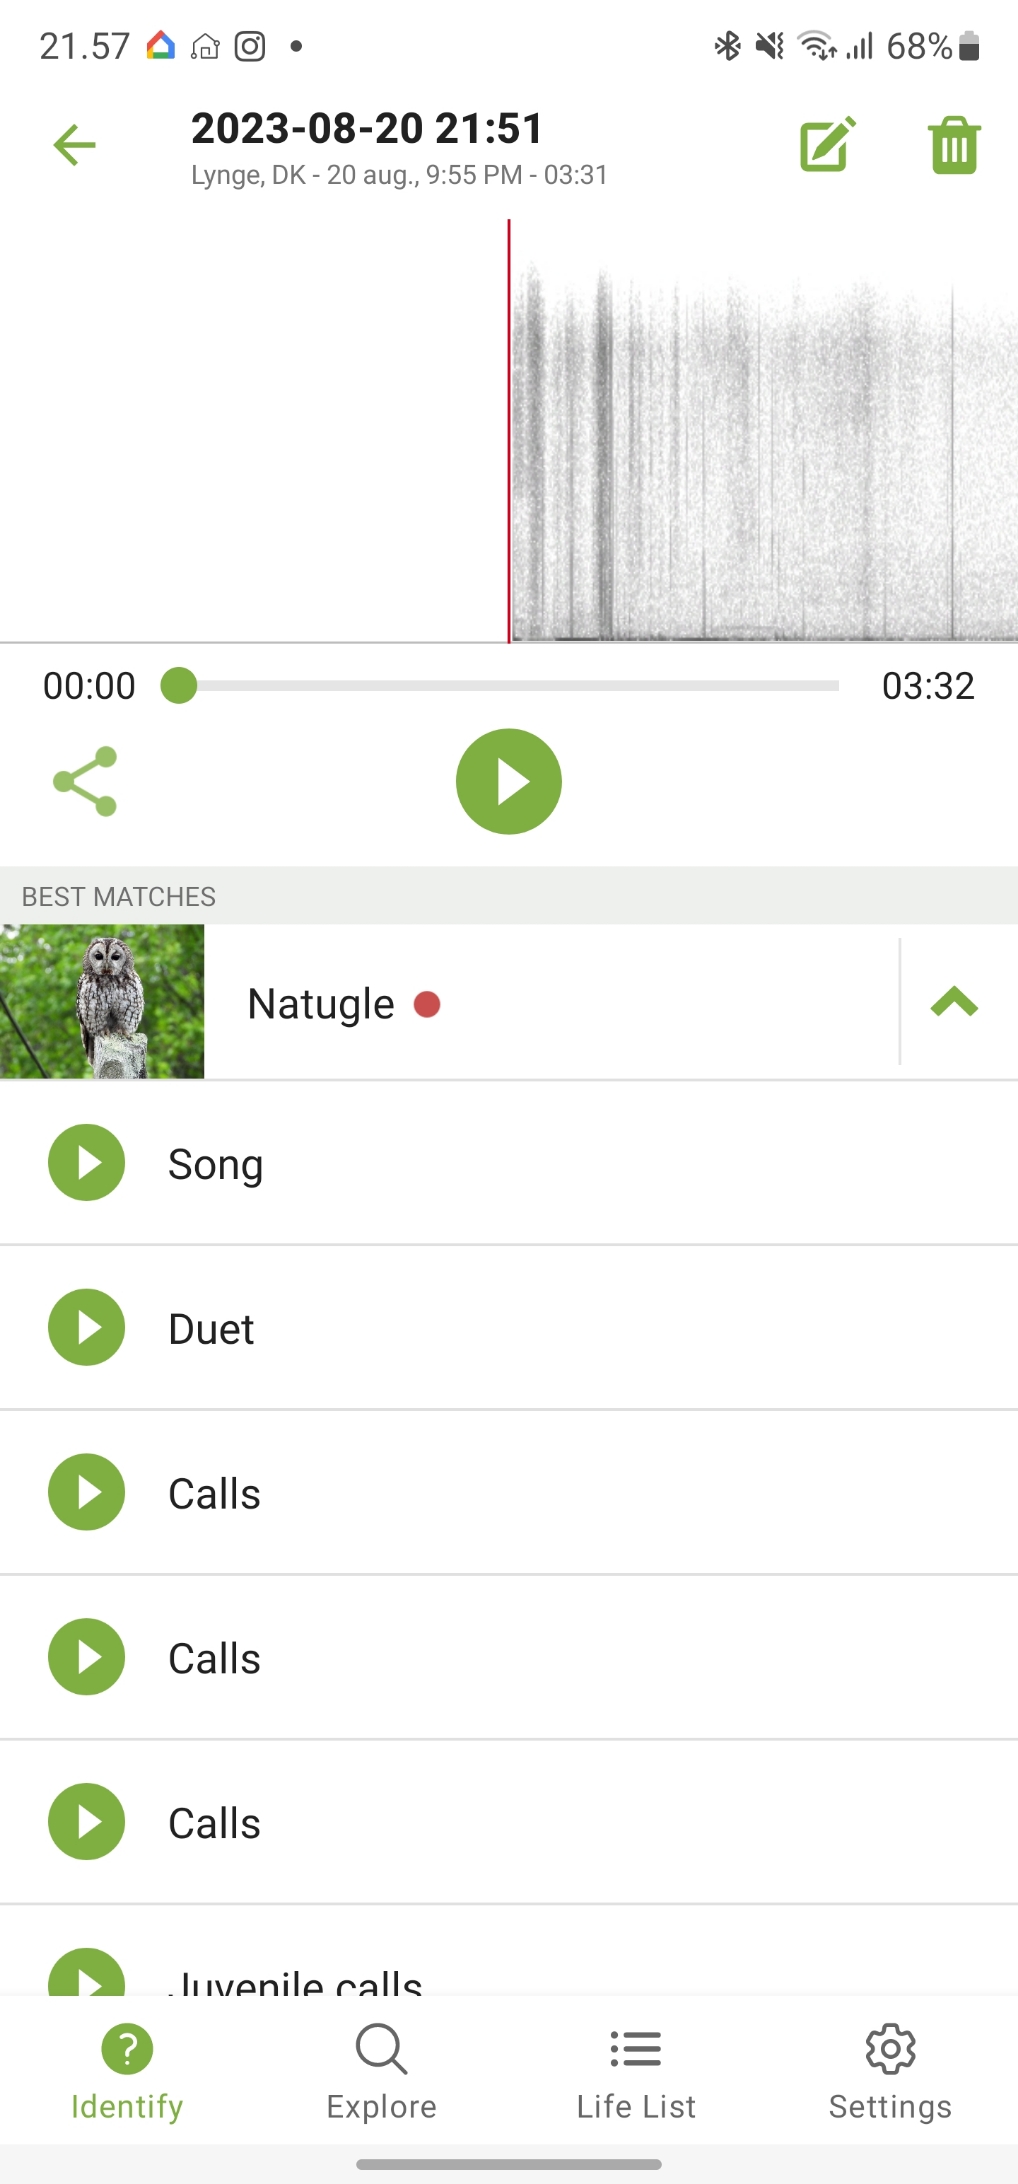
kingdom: Animalia
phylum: Chordata
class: Aves
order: Strigiformes
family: Strigidae
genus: Strix
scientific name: Strix aluco
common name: Natugle
